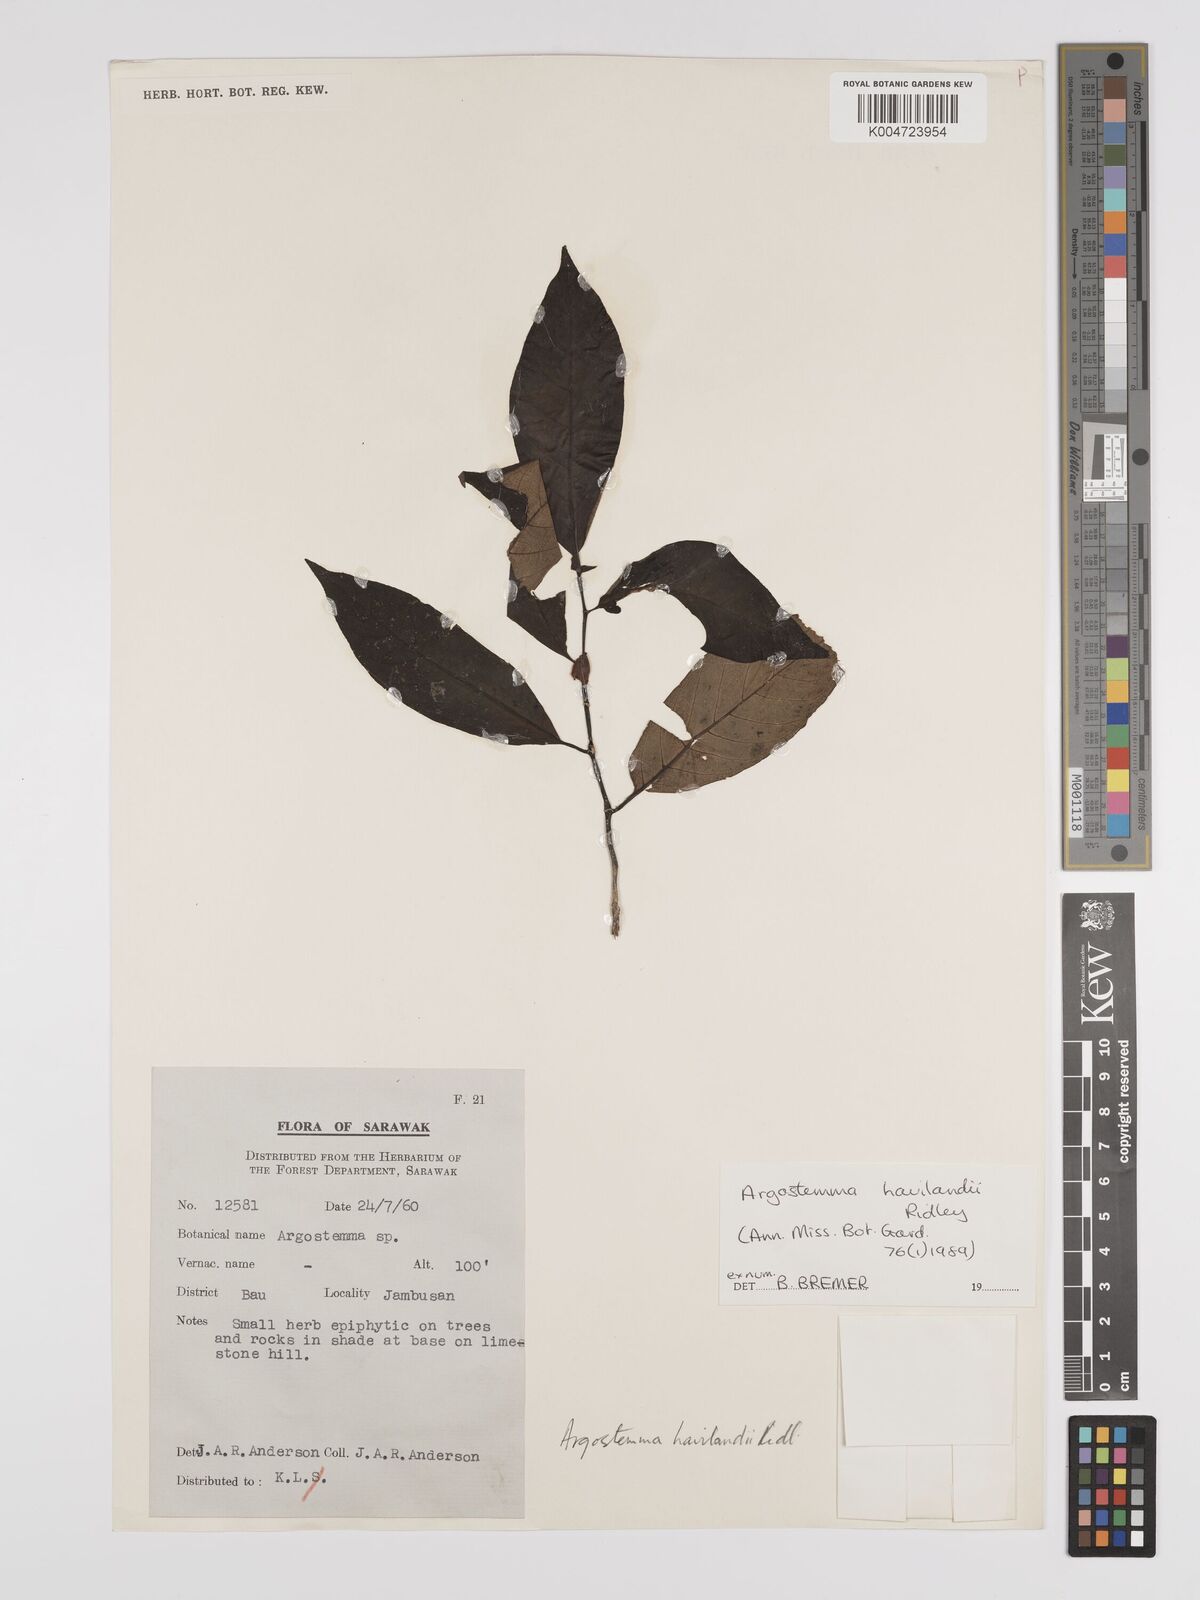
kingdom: Plantae
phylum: Tracheophyta
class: Magnoliopsida
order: Gentianales
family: Rubiaceae
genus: Argostemma
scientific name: Argostemma havilandii
